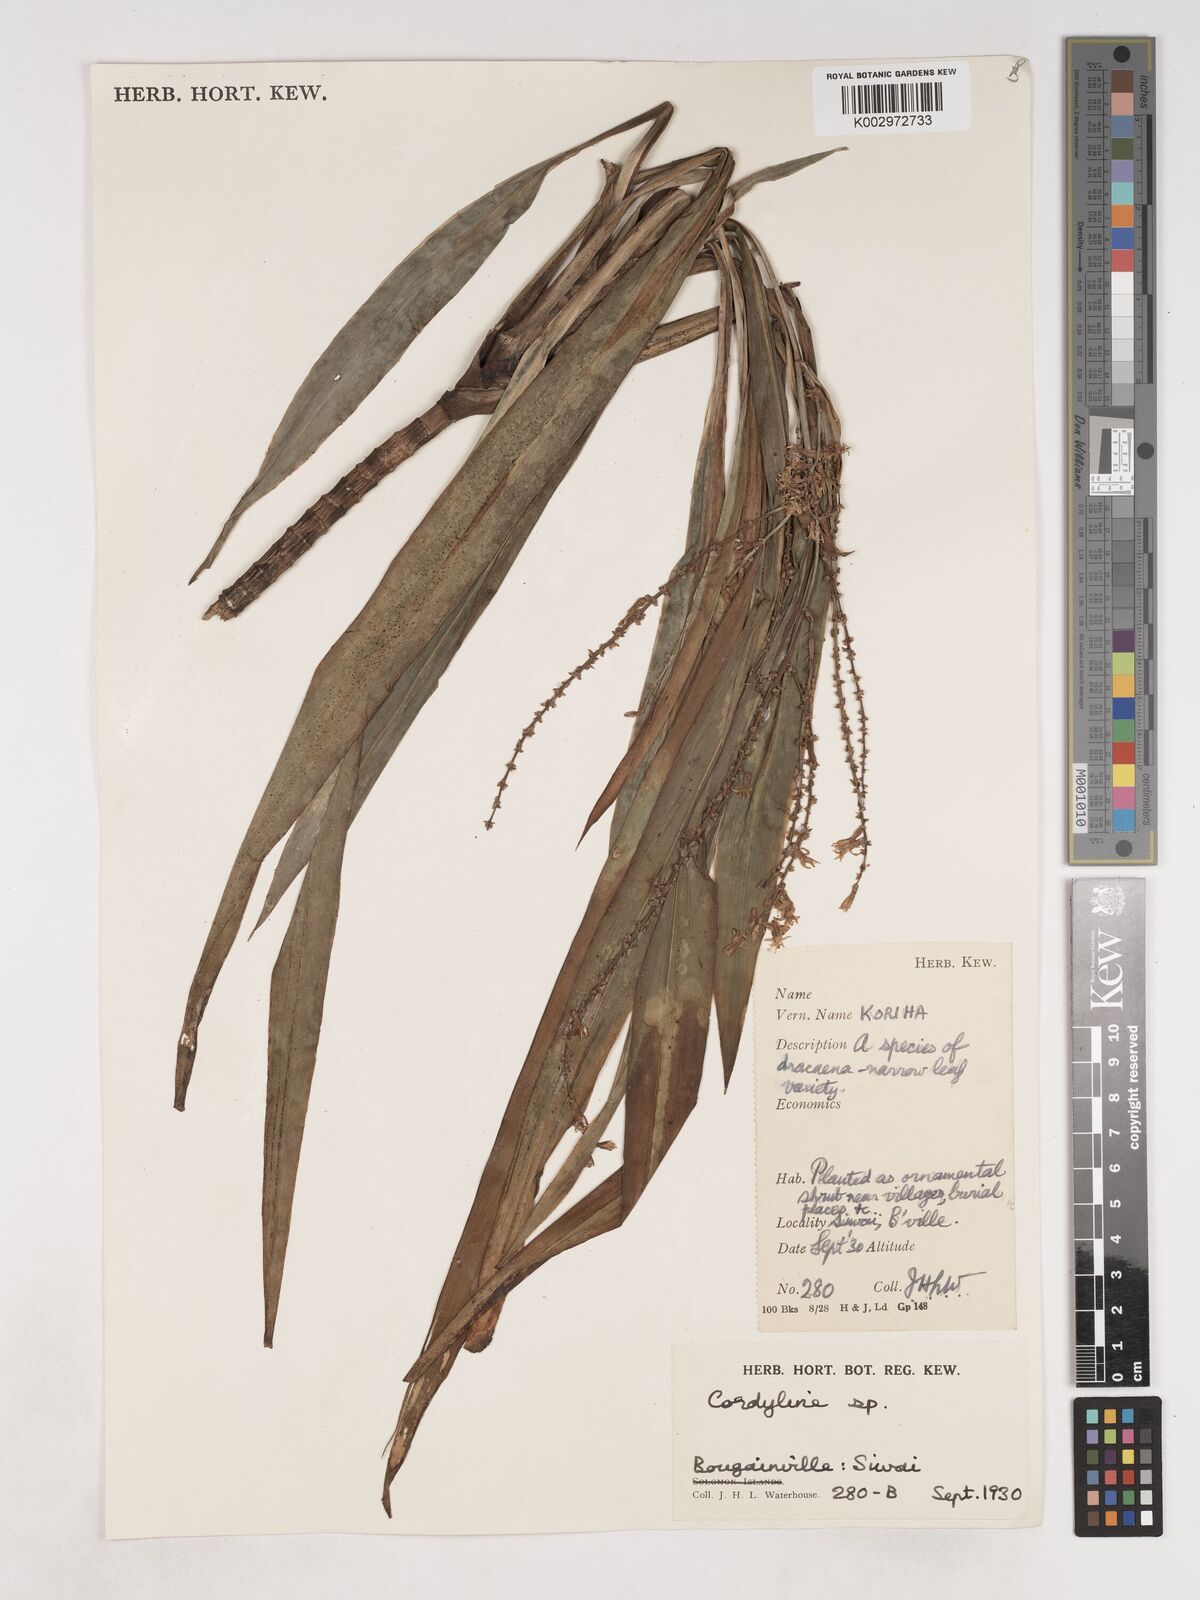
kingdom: Plantae
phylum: Tracheophyta
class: Liliopsida
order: Asparagales
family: Asparagaceae
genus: Cordyline
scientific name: Cordyline fruticosa
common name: Good-luck-plant
